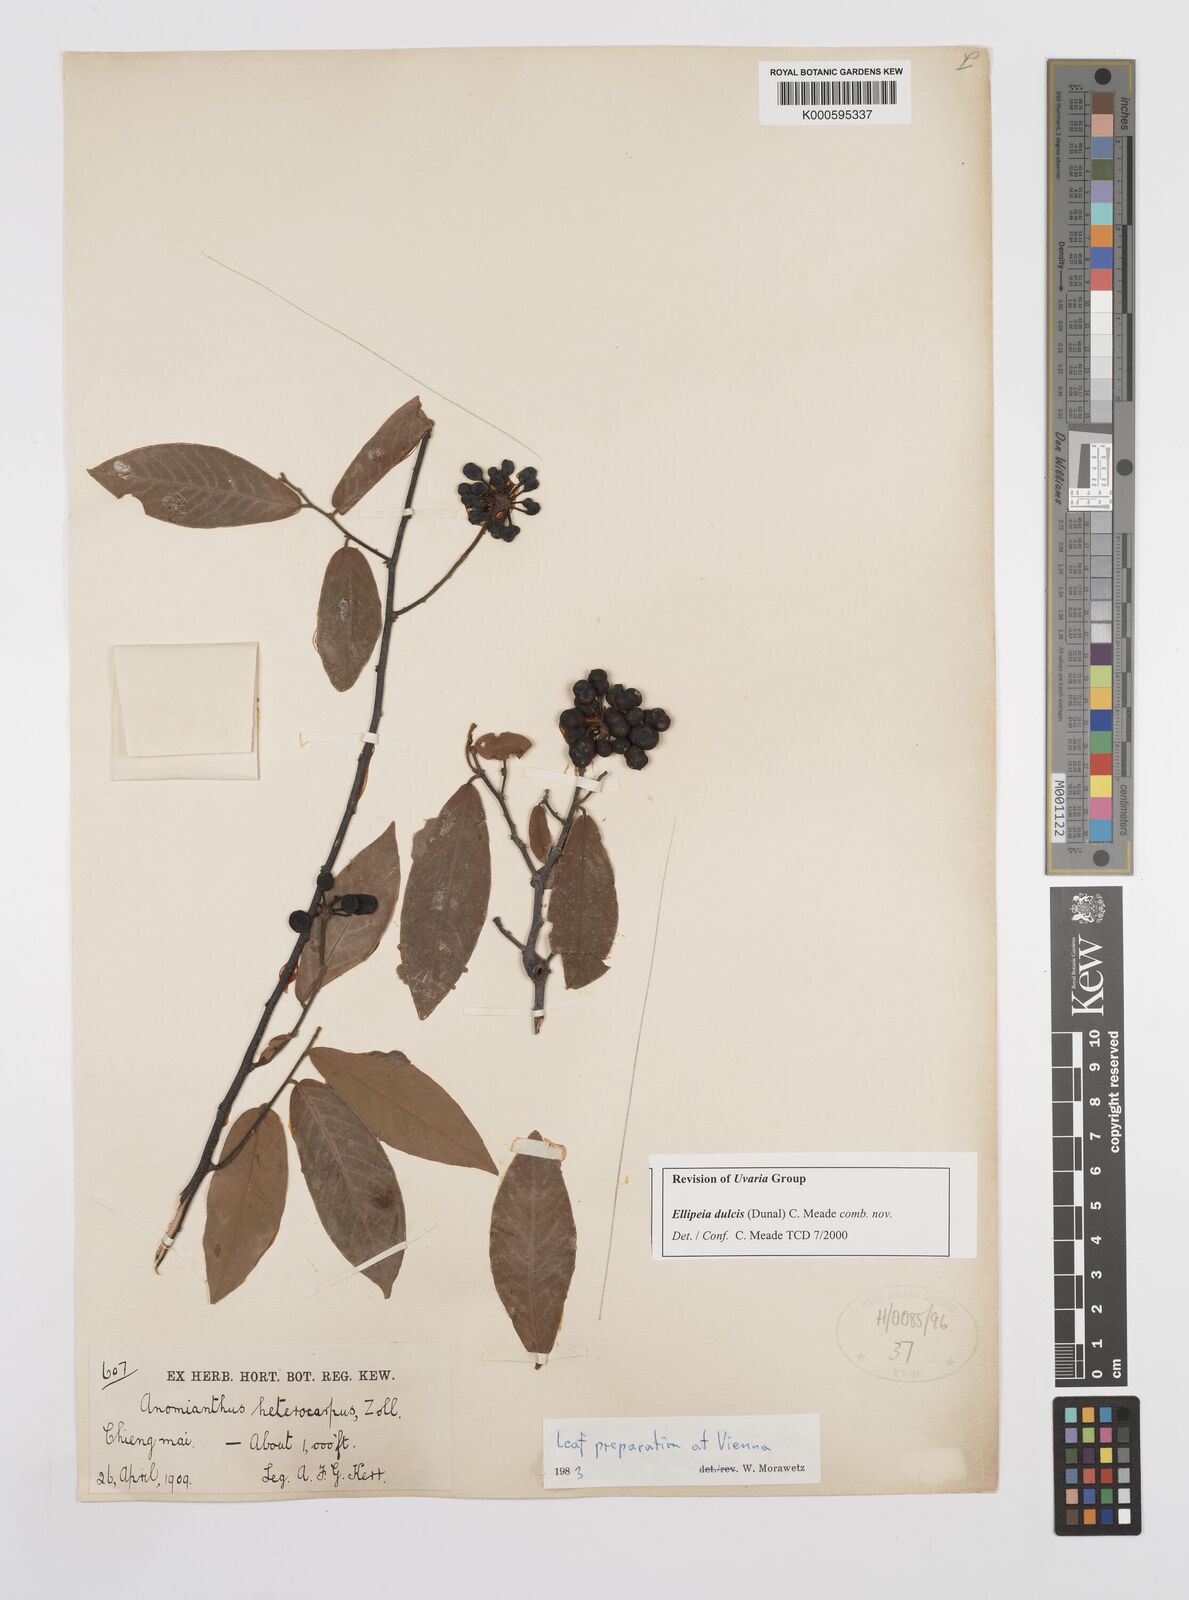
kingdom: Plantae
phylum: Tracheophyta
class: Magnoliopsida
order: Magnoliales
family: Annonaceae
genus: Uvaria
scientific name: Uvaria
